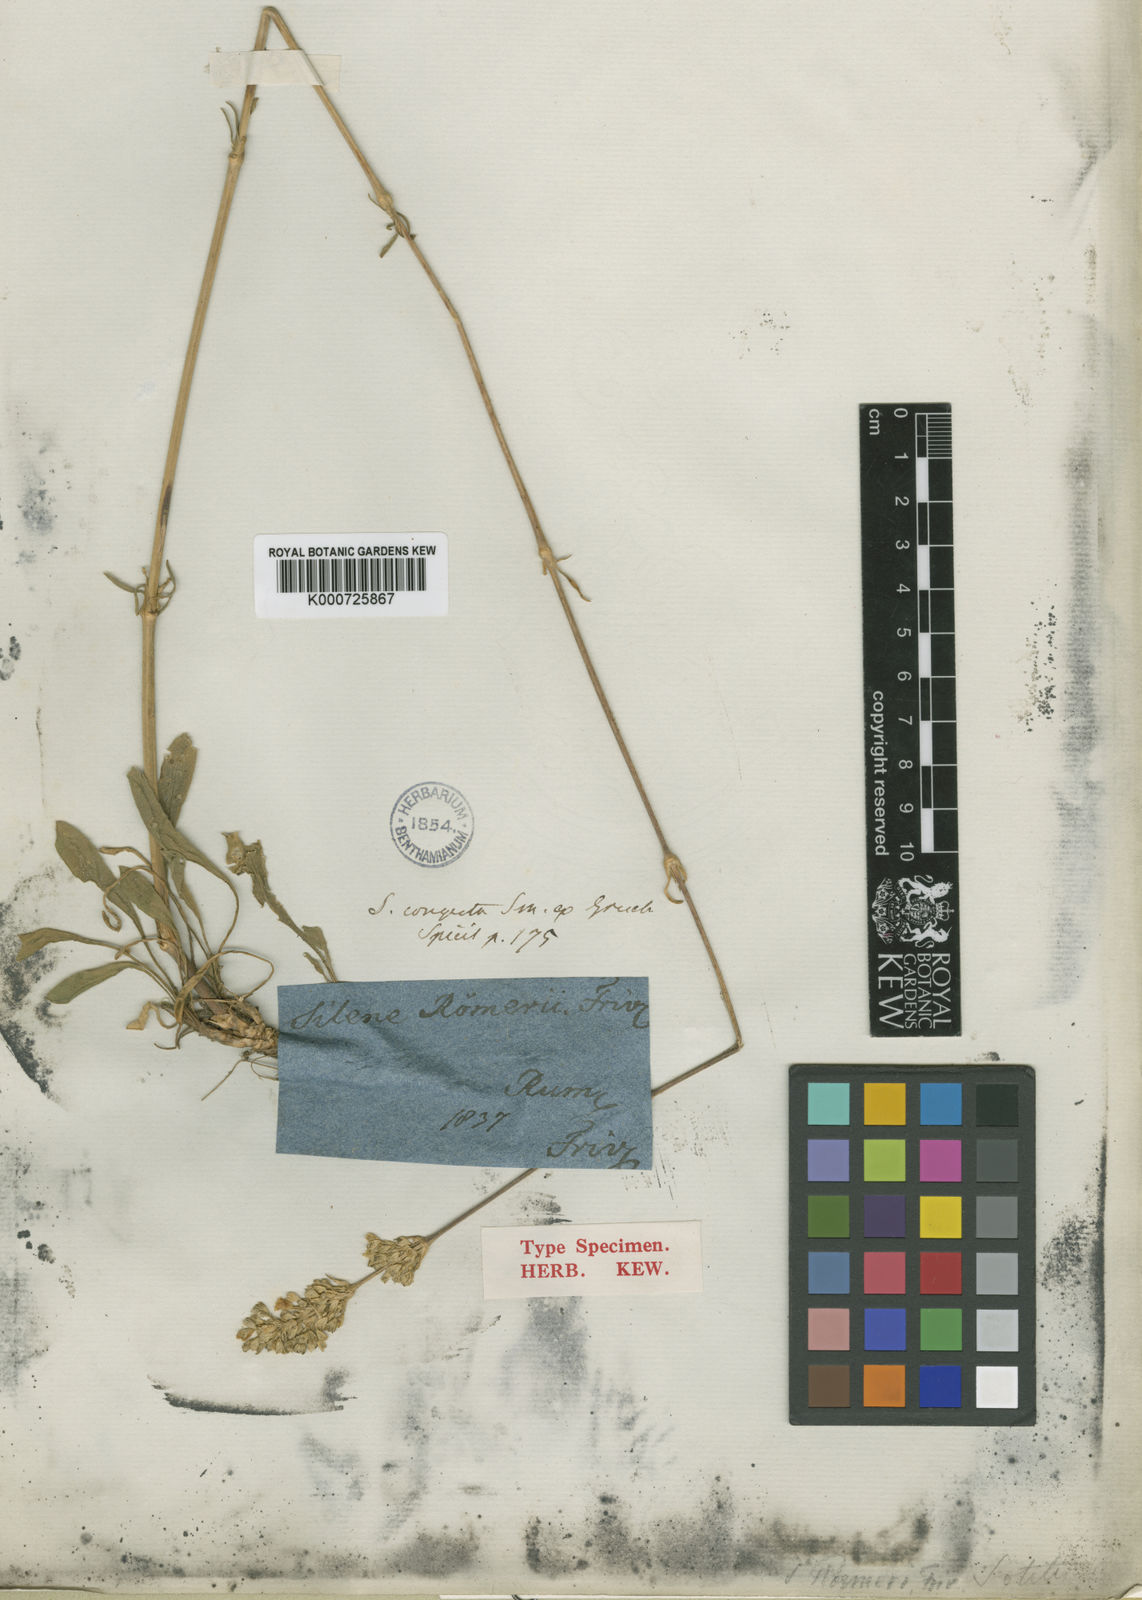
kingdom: Plantae
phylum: Tracheophyta
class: Magnoliopsida
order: Caryophyllales
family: Caryophyllaceae
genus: Silene
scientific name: Silene roemeri
